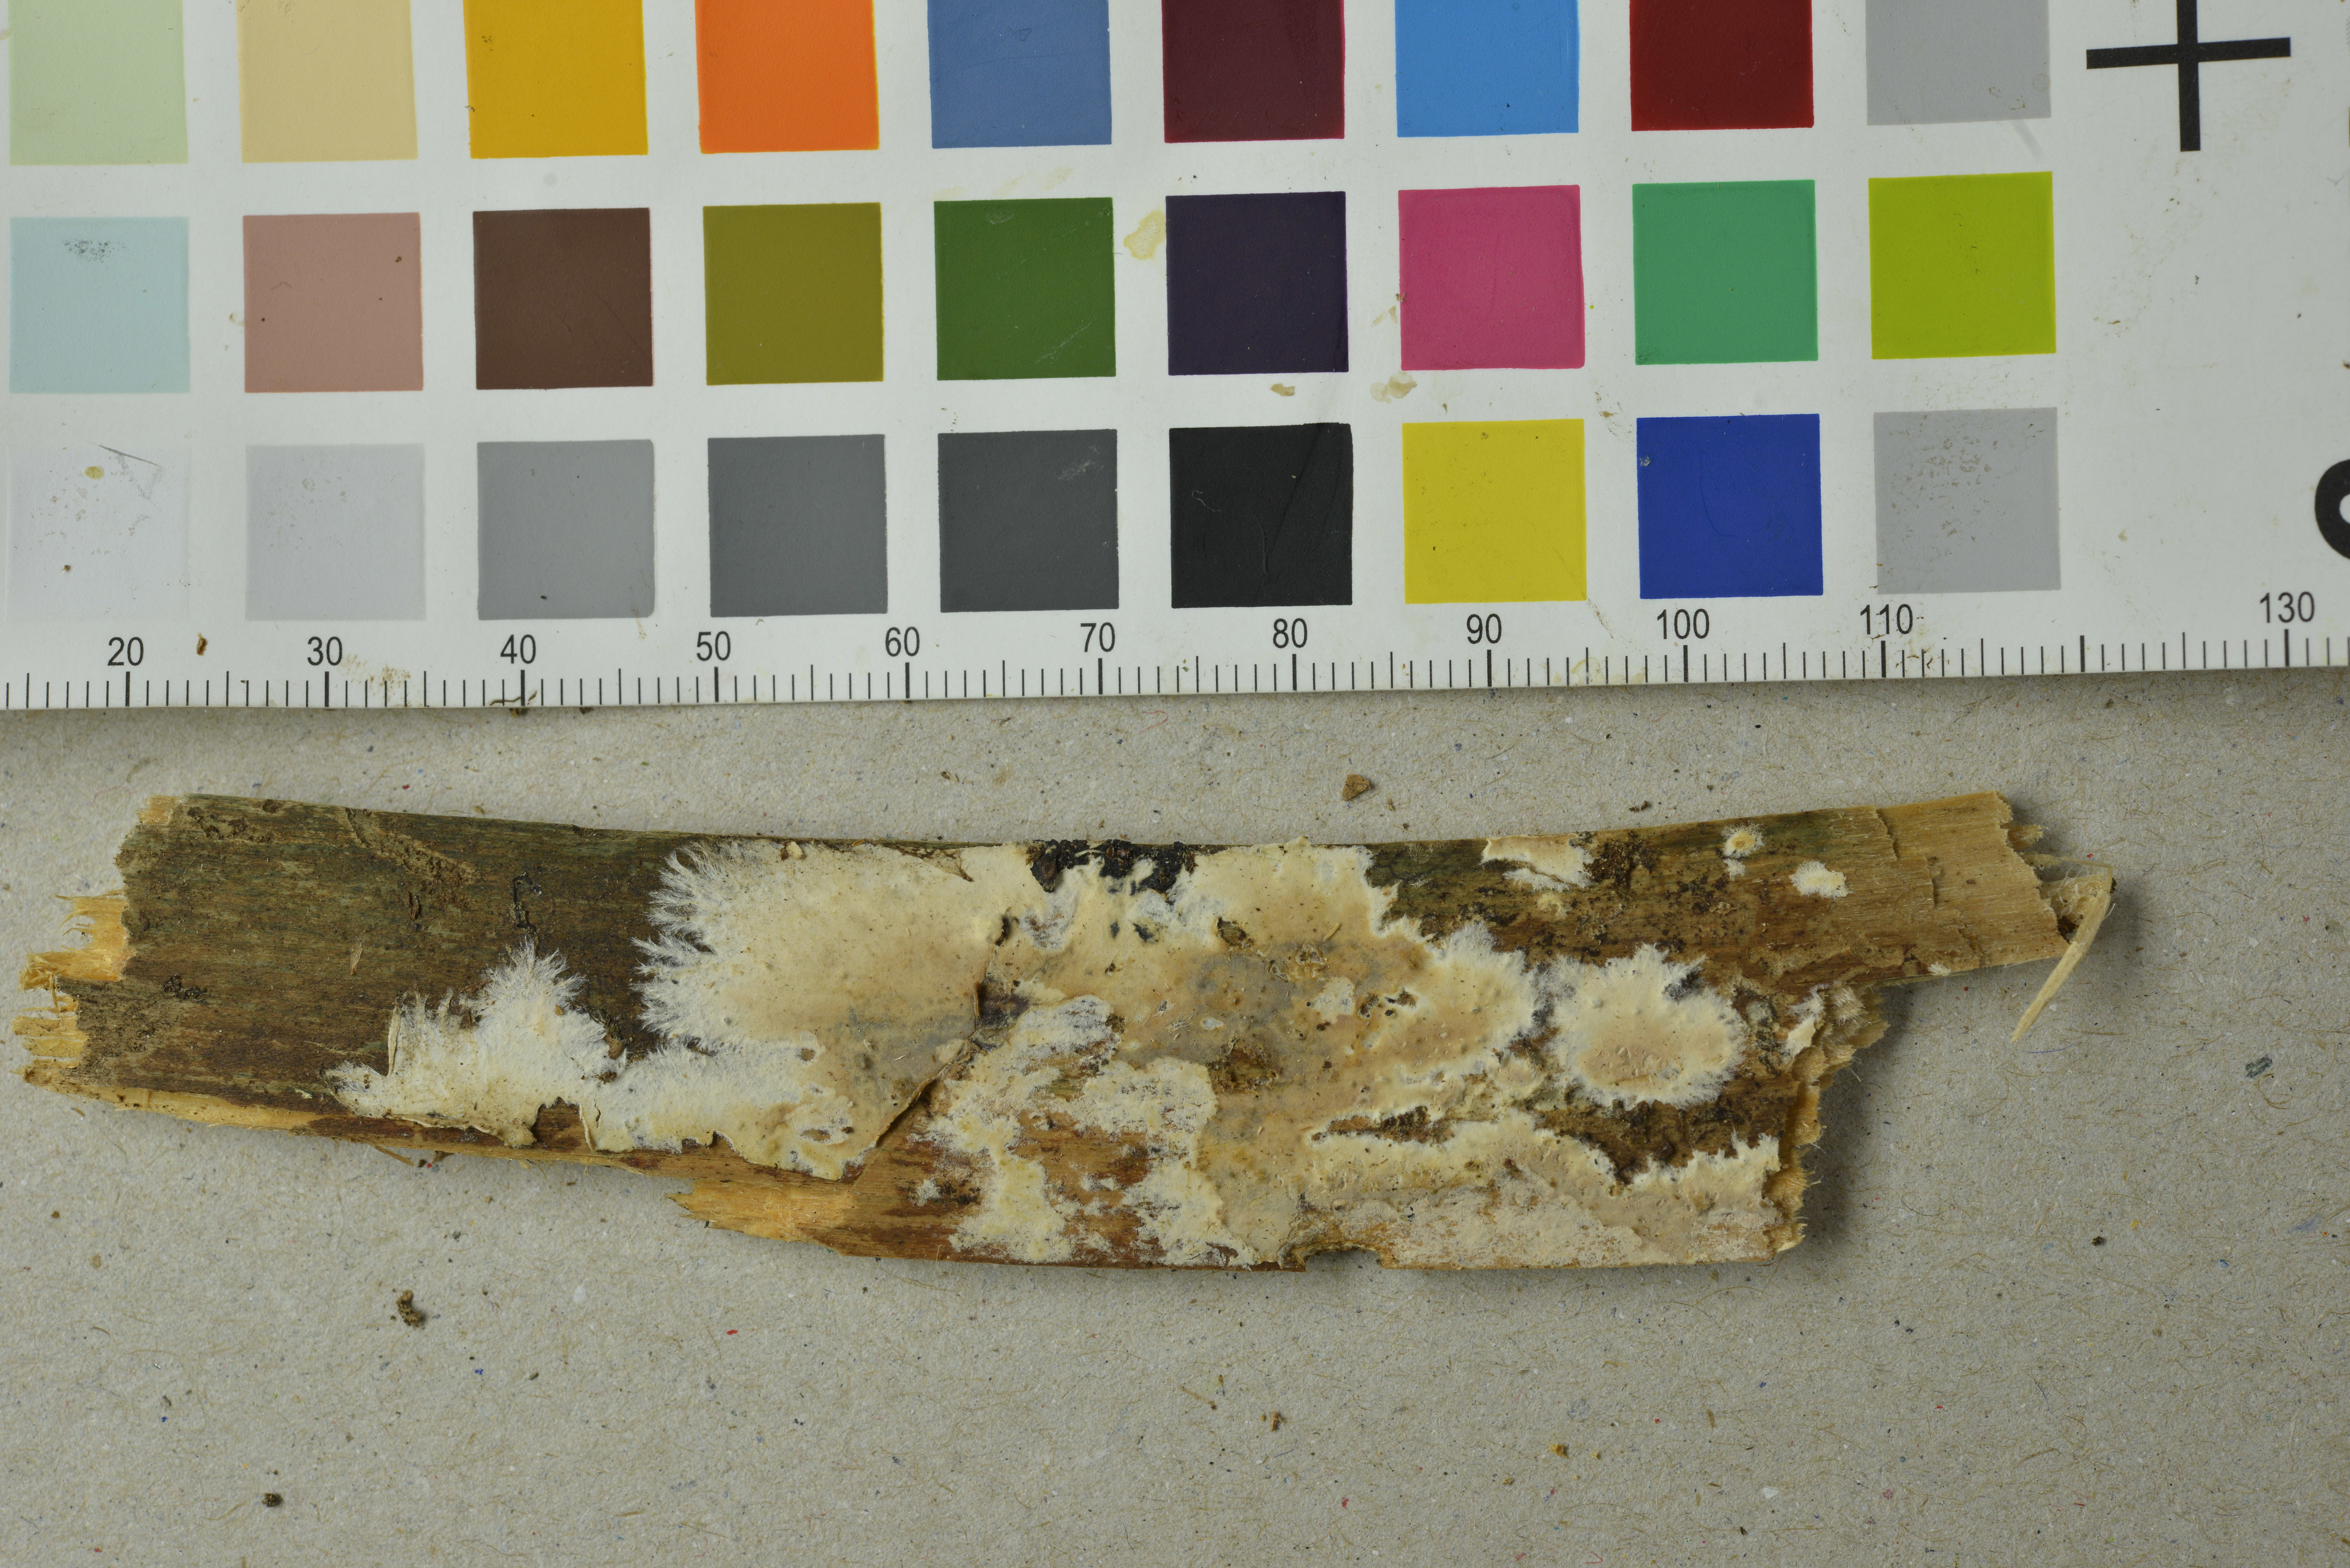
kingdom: Fungi
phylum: Basidiomycota
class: Agaricomycetes
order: Polyporales
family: Phanerochaetaceae
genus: Phanerochaete
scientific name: Phanerochaete velutina
